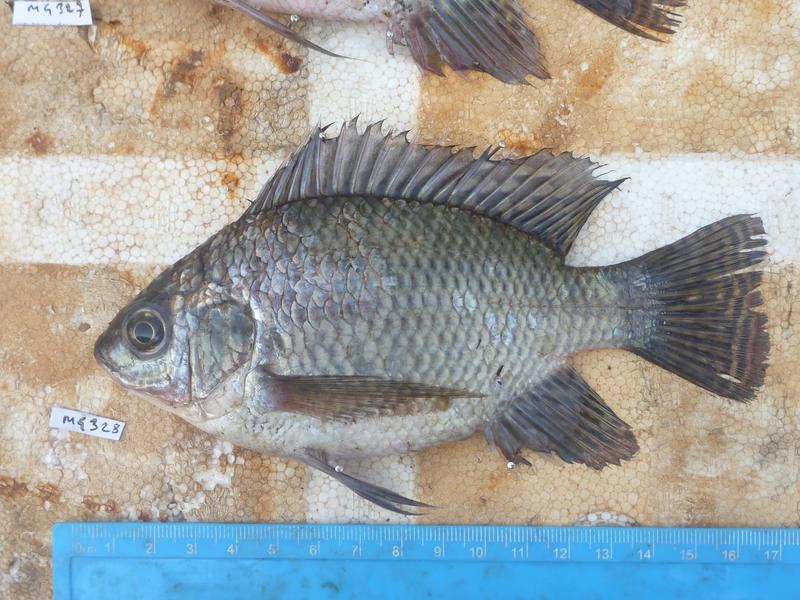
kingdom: Animalia
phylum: Chordata
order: Perciformes
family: Cichlidae
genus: Oreochromis
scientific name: Oreochromis niloticus
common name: Nile tilapia
